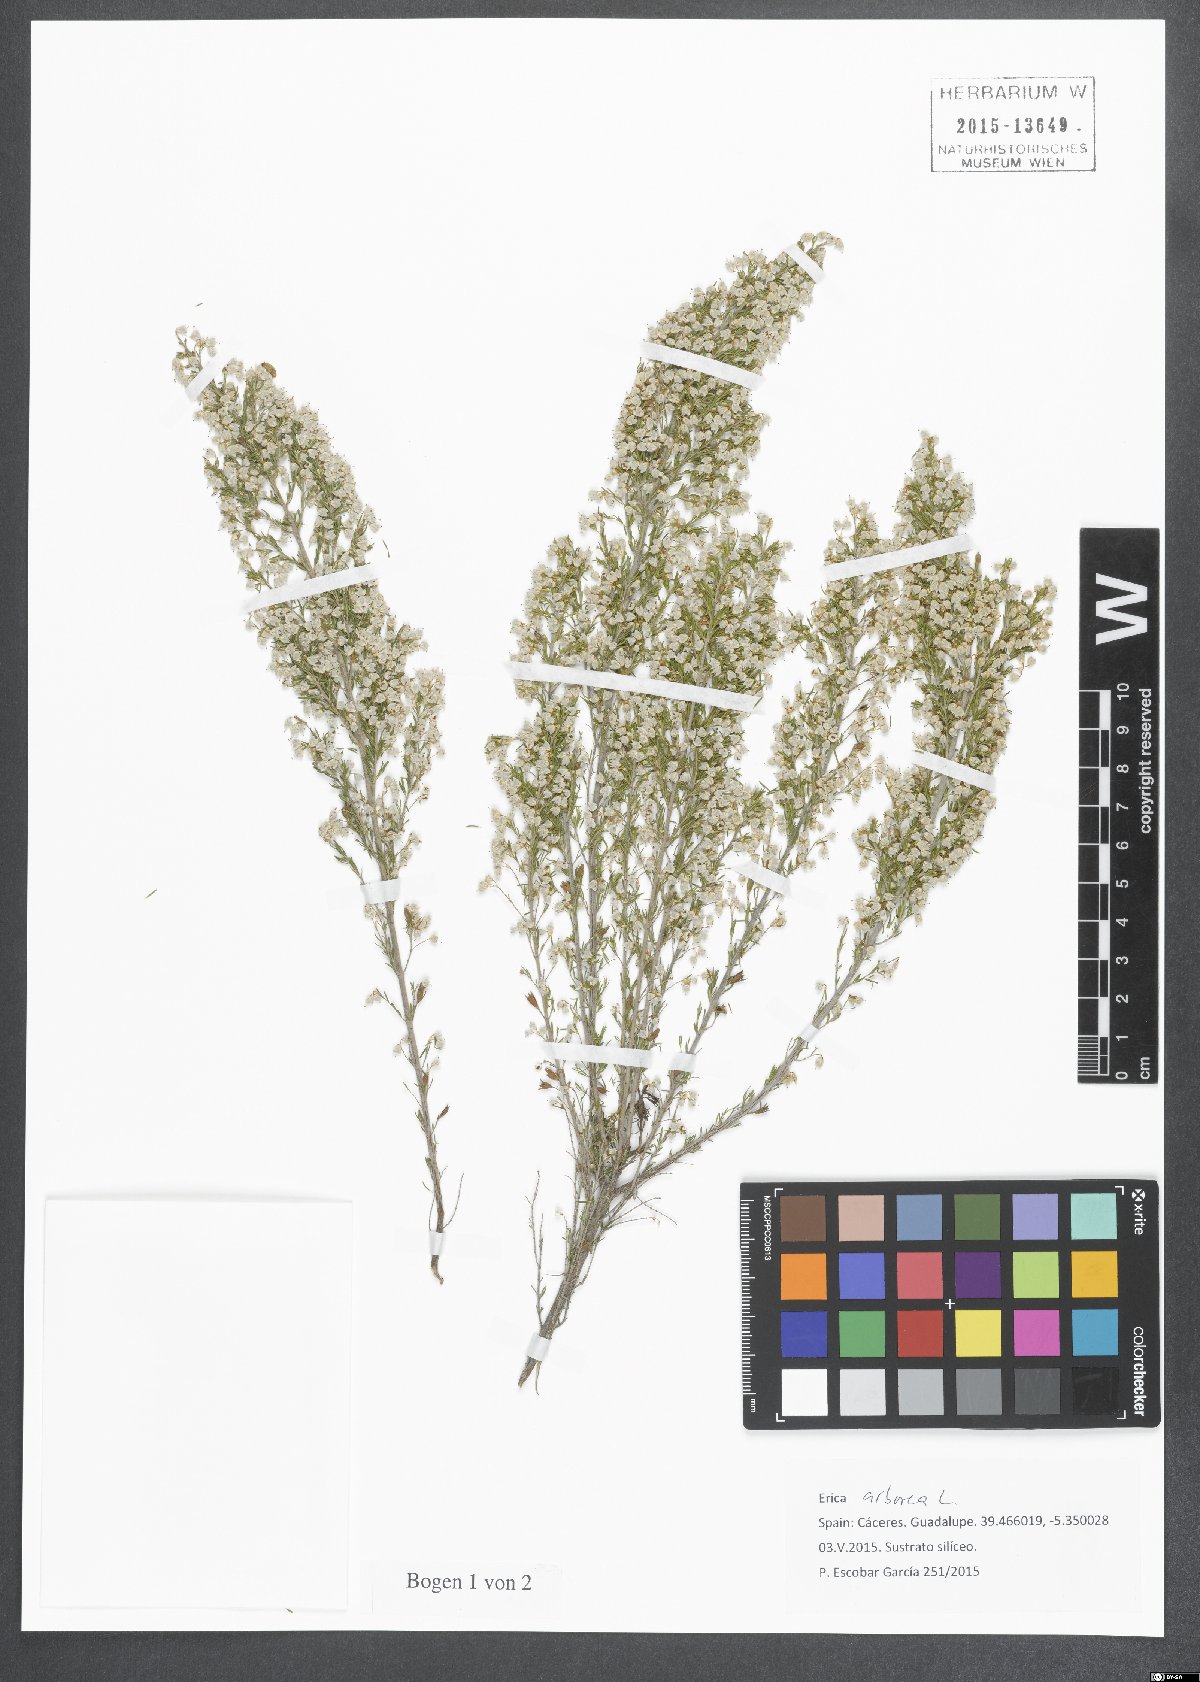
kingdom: Plantae
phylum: Tracheophyta
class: Magnoliopsida
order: Ericales
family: Ericaceae
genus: Erica
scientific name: Erica arborea
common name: Tree heath
